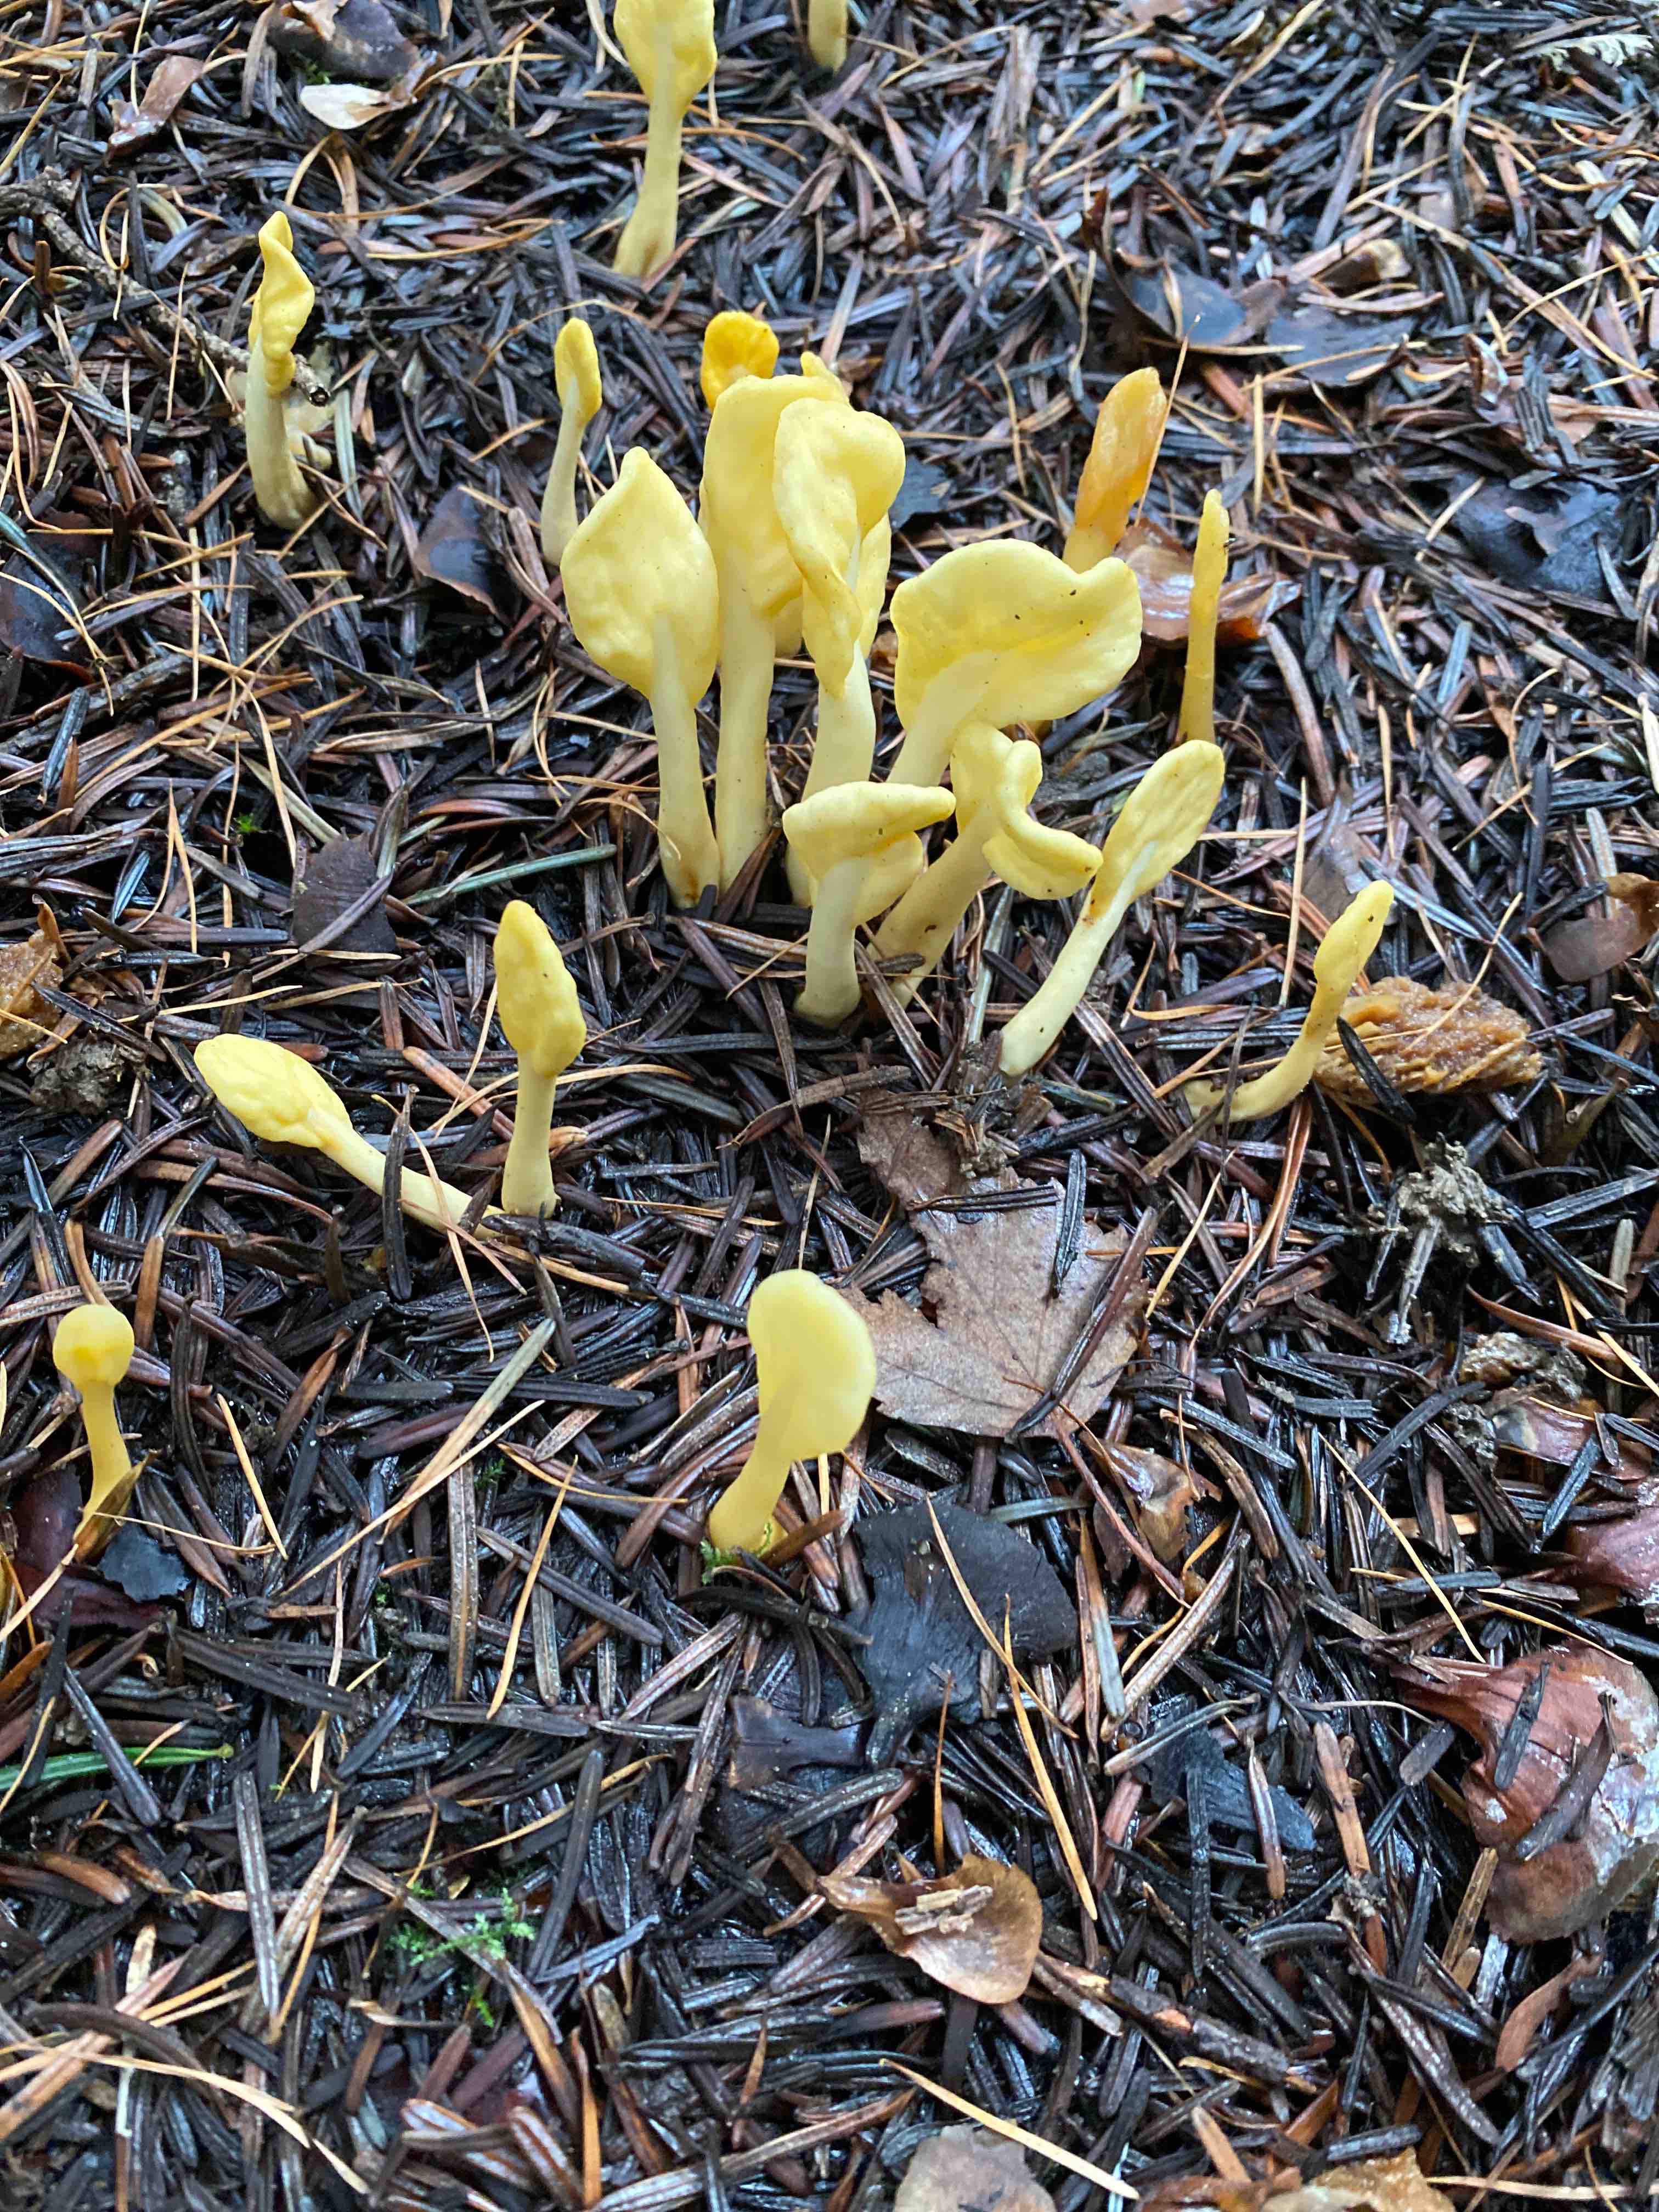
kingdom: Fungi
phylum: Ascomycota
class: Leotiomycetes
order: Rhytismatales
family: Cudoniaceae
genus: Spathularia
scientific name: Spathularia flavida
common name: gul spatelsvamp
